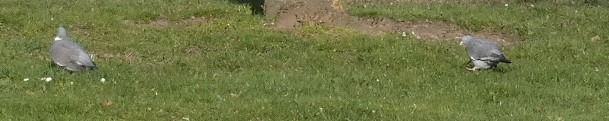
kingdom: Animalia
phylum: Chordata
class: Aves
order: Columbiformes
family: Columbidae
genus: Columba
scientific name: Columba palumbus
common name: Ringdue
